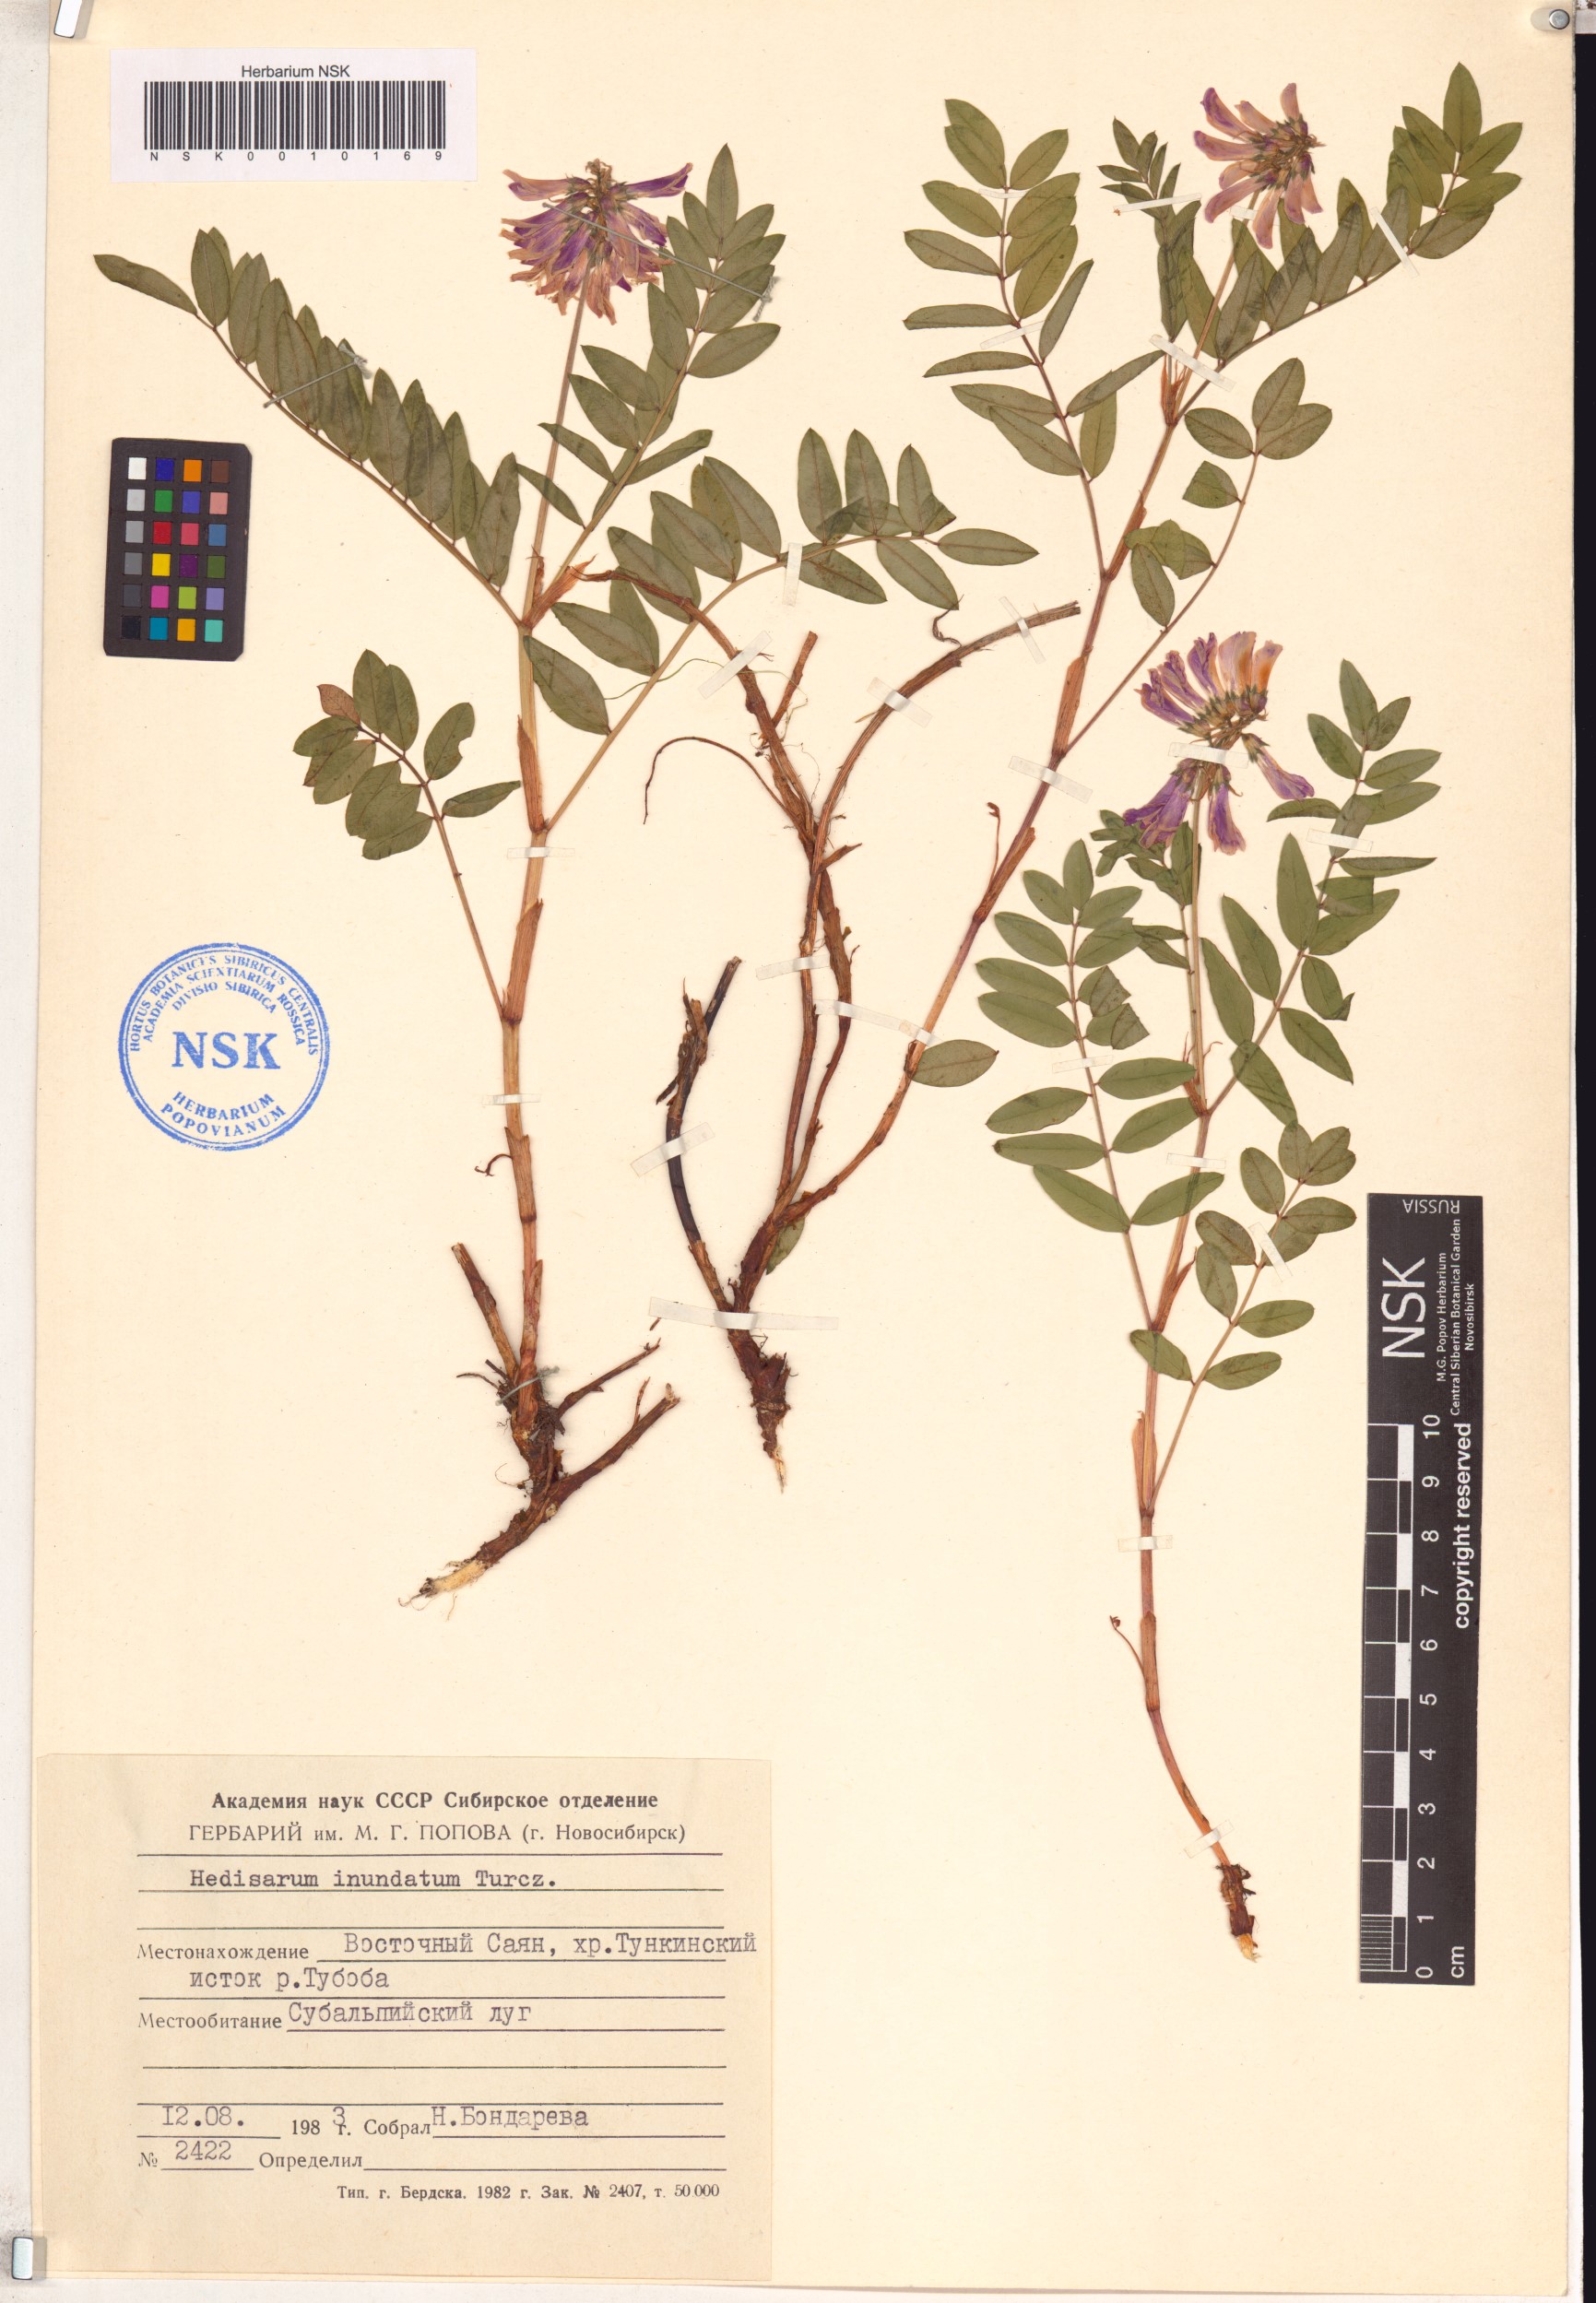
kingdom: Plantae
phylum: Tracheophyta
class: Magnoliopsida
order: Fabales
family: Fabaceae
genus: Hedysarum
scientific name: Hedysarum inundatum
